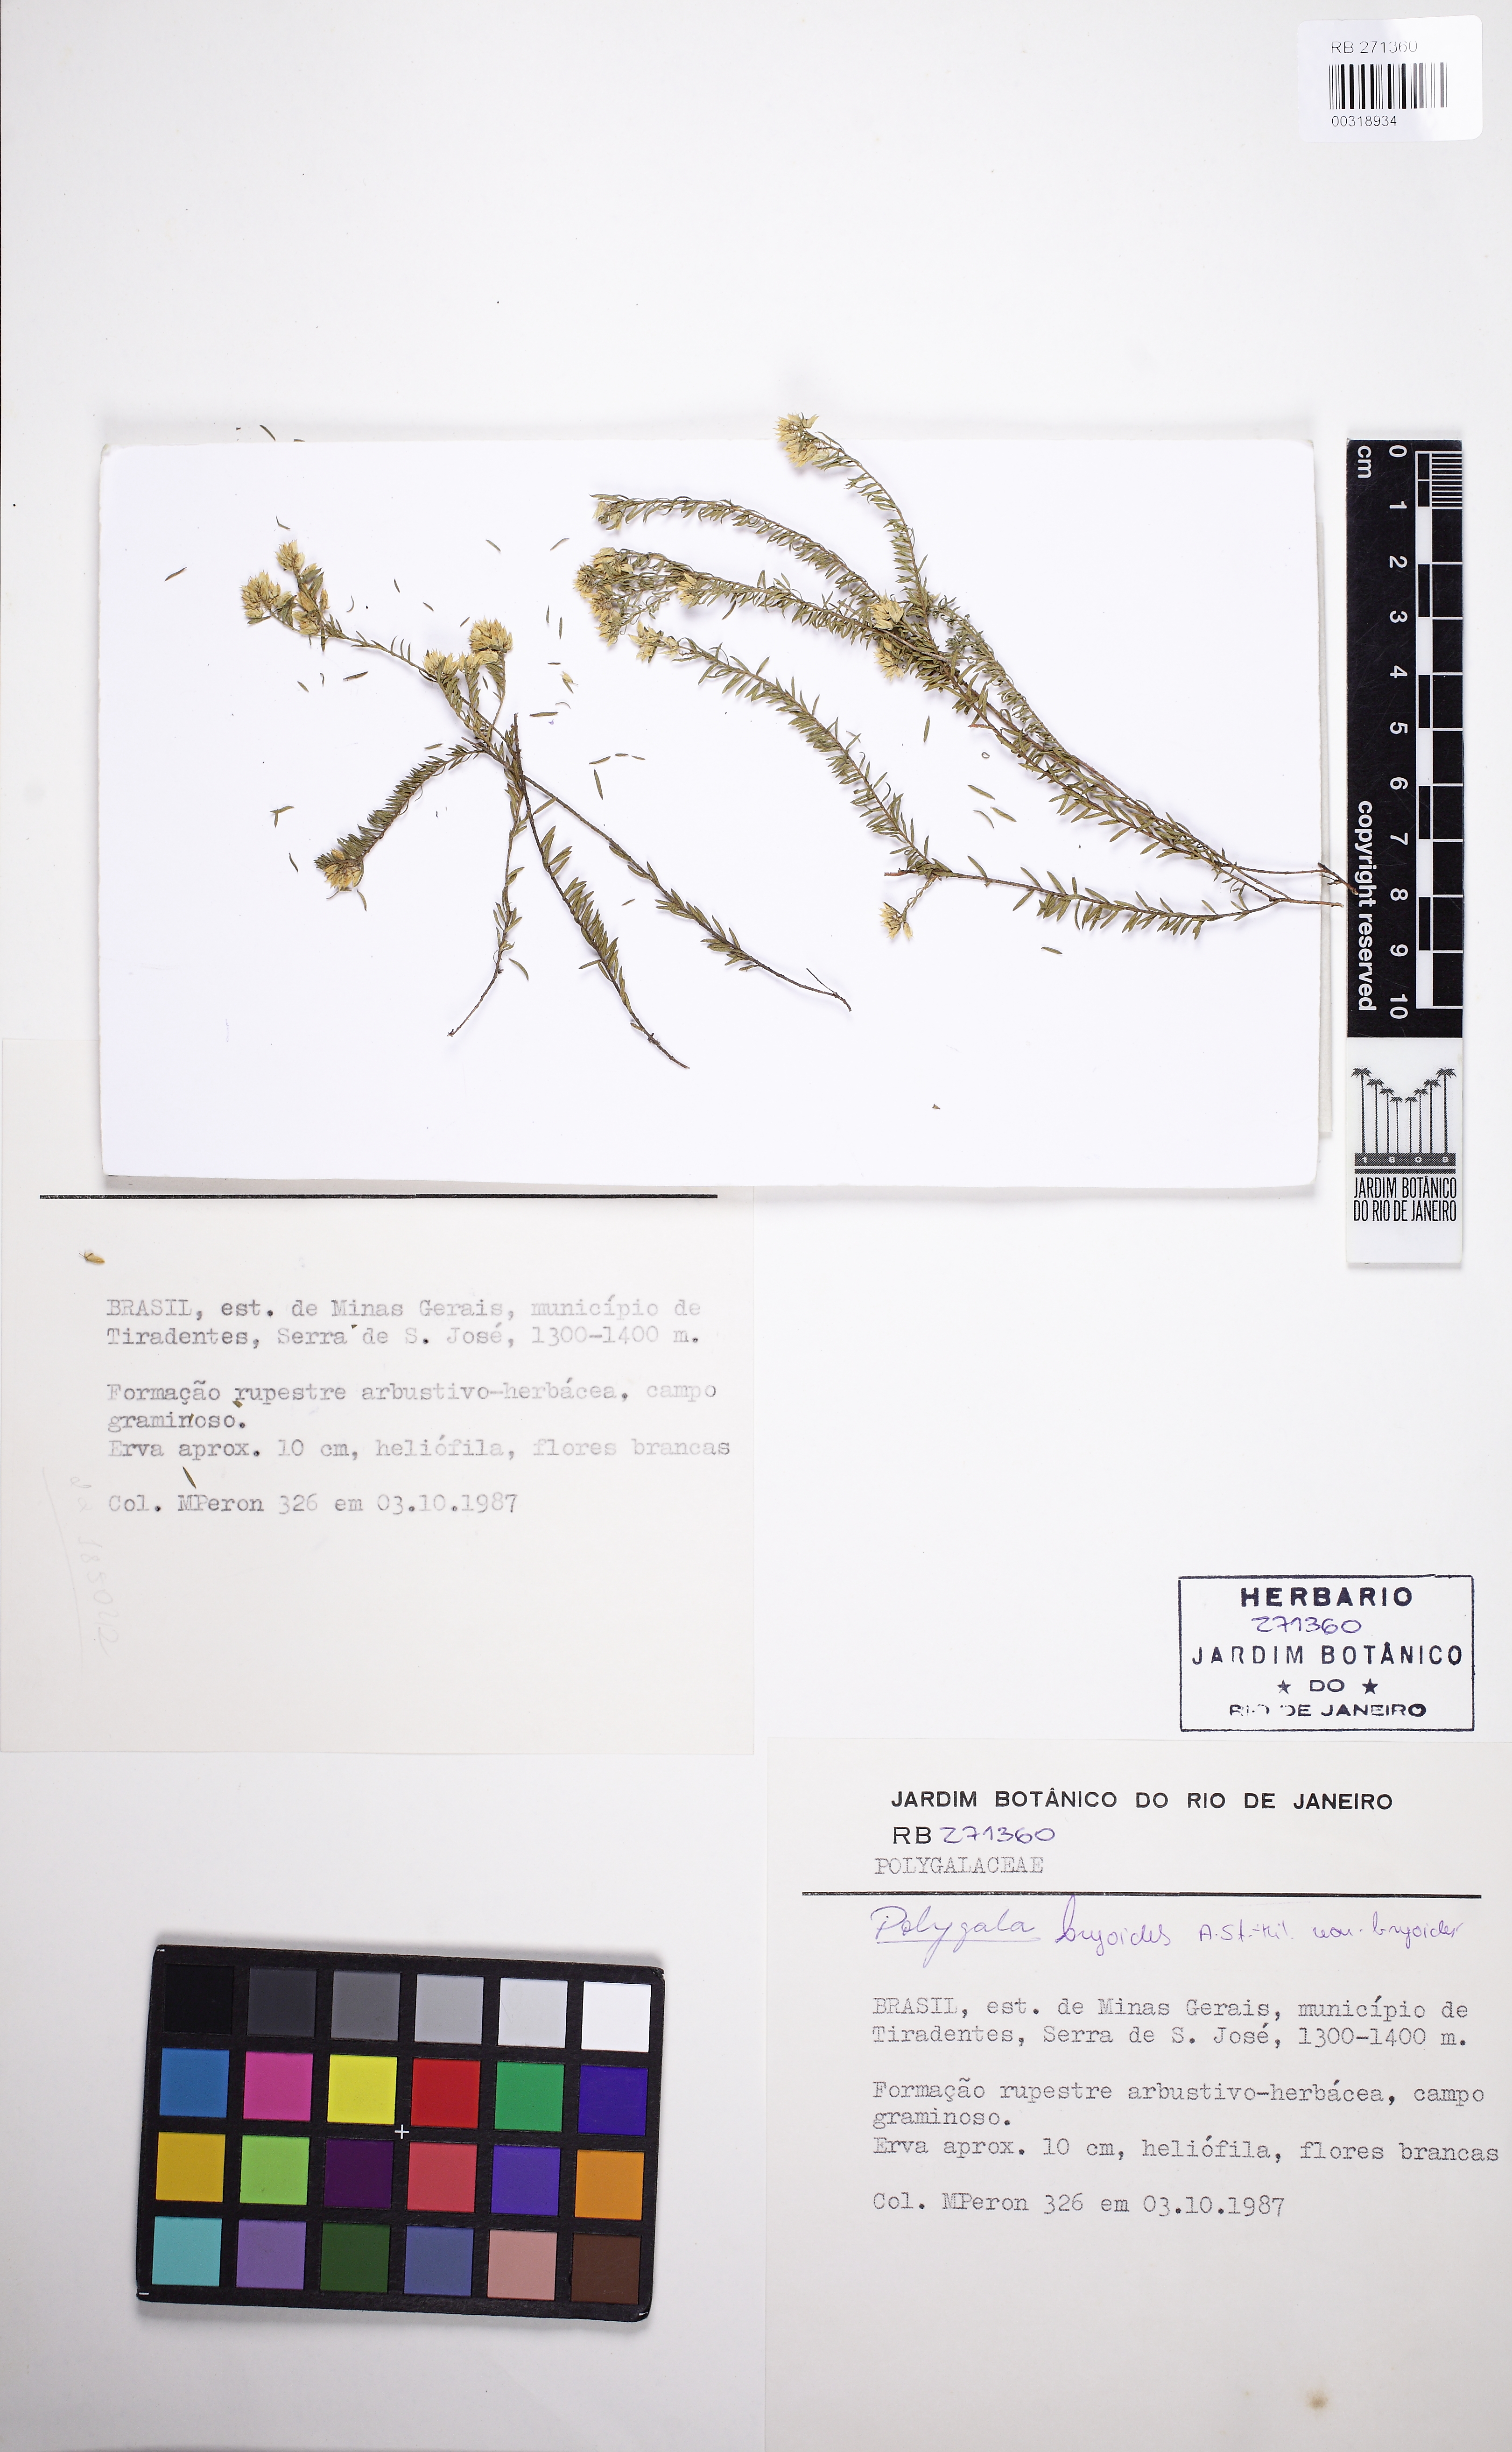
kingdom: Plantae
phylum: Tracheophyta
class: Magnoliopsida
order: Fabales
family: Polygalaceae
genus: Asemeia
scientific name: Asemeia violacea
